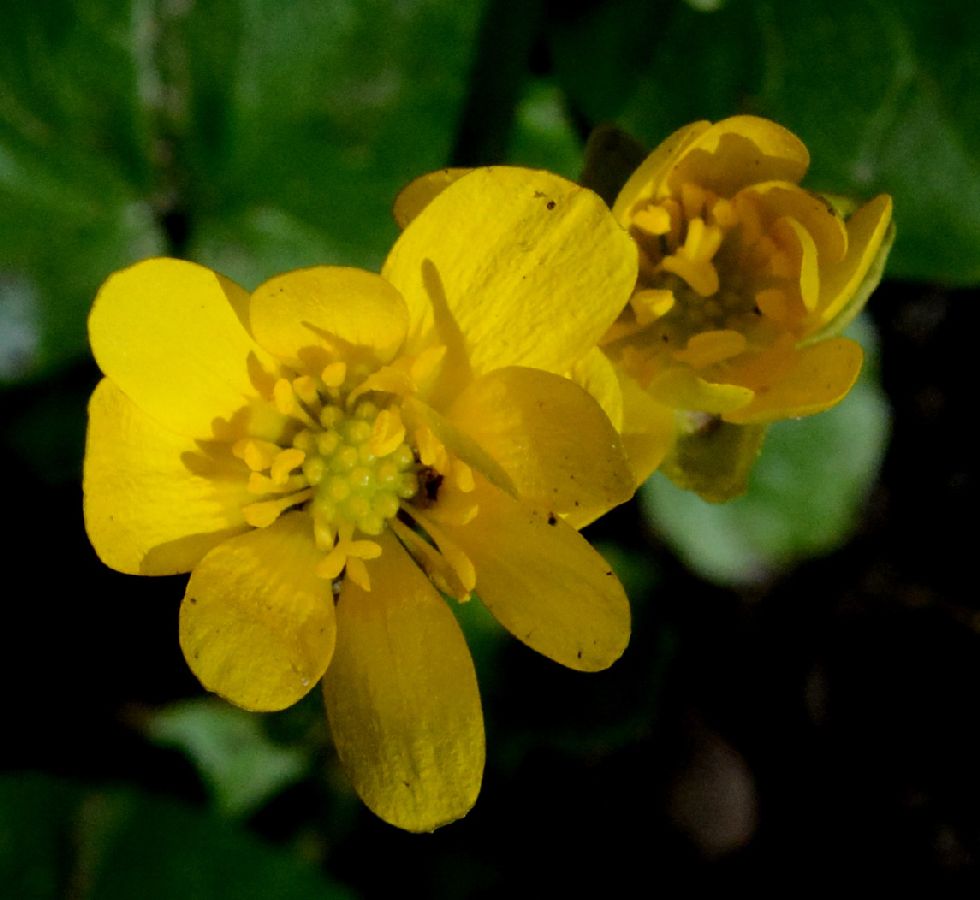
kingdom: Plantae
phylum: Tracheophyta
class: Magnoliopsida
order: Ranunculales
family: Ranunculaceae
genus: Ficaria
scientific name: Ficaria verna
